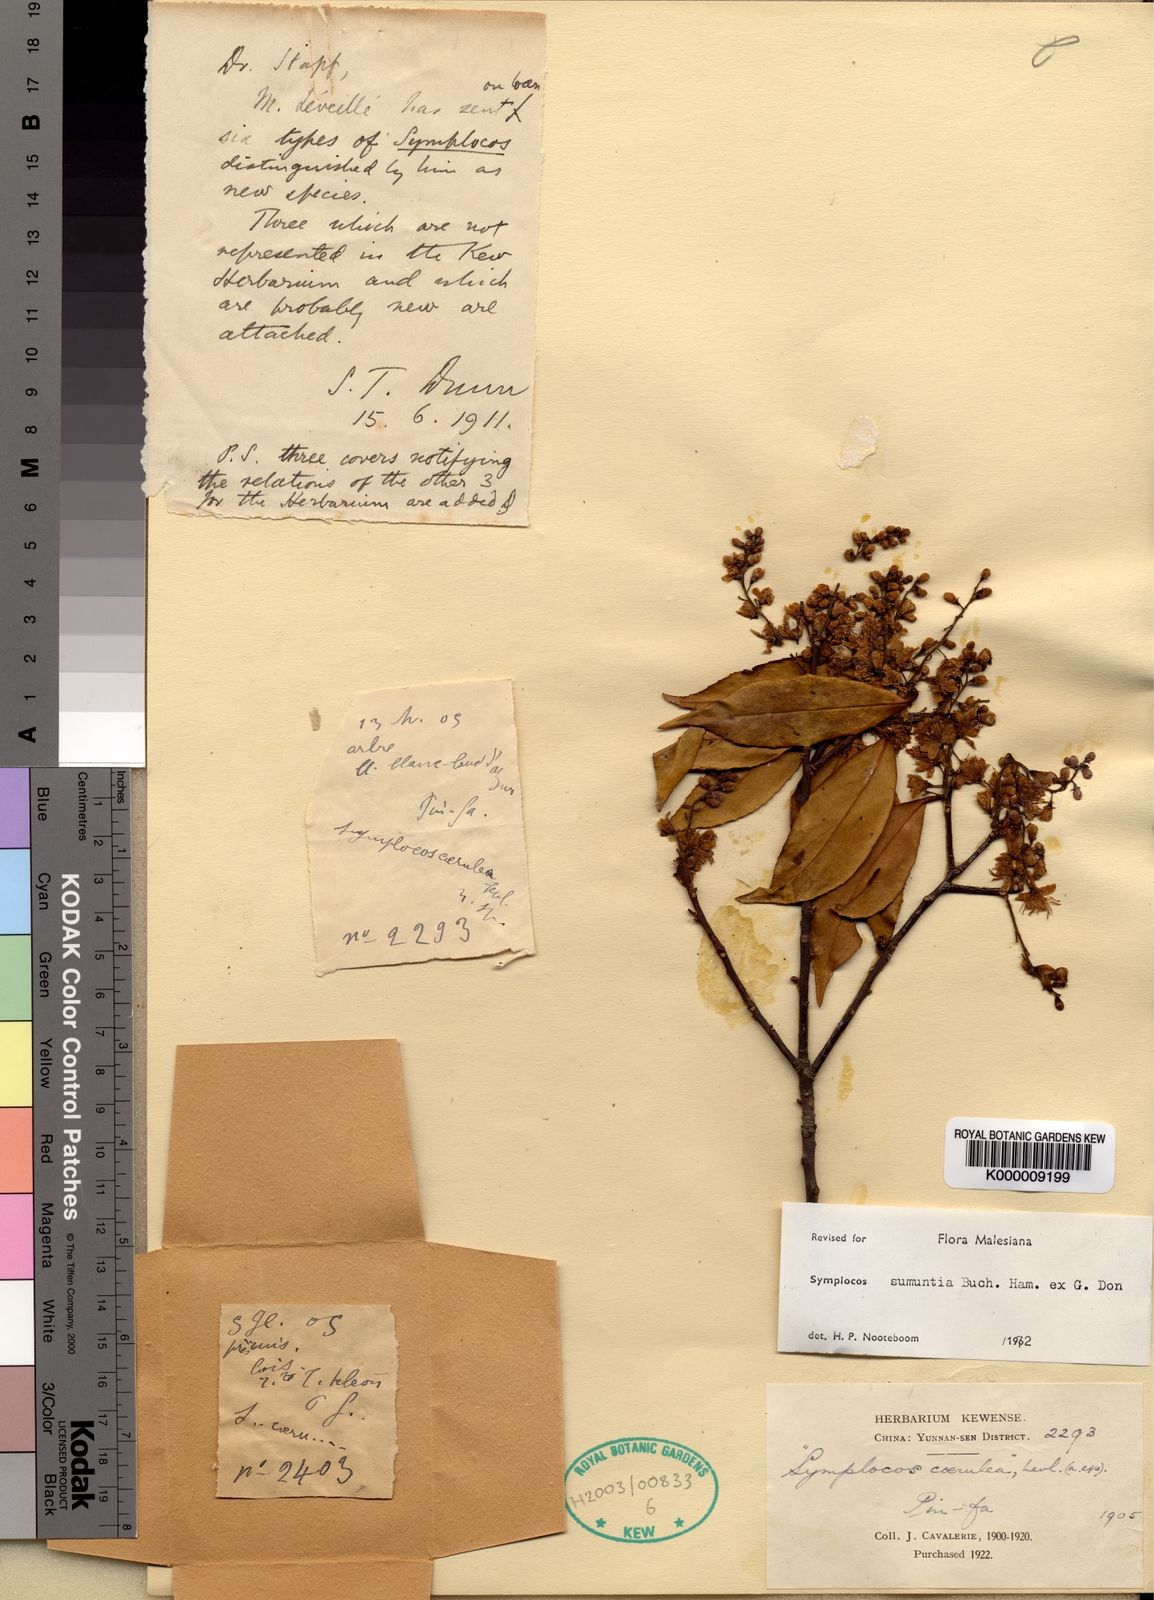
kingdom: Plantae
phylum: Tracheophyta
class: Magnoliopsida
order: Ericales
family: Symplocaceae
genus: Symplocos
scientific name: Symplocos sumuntia
